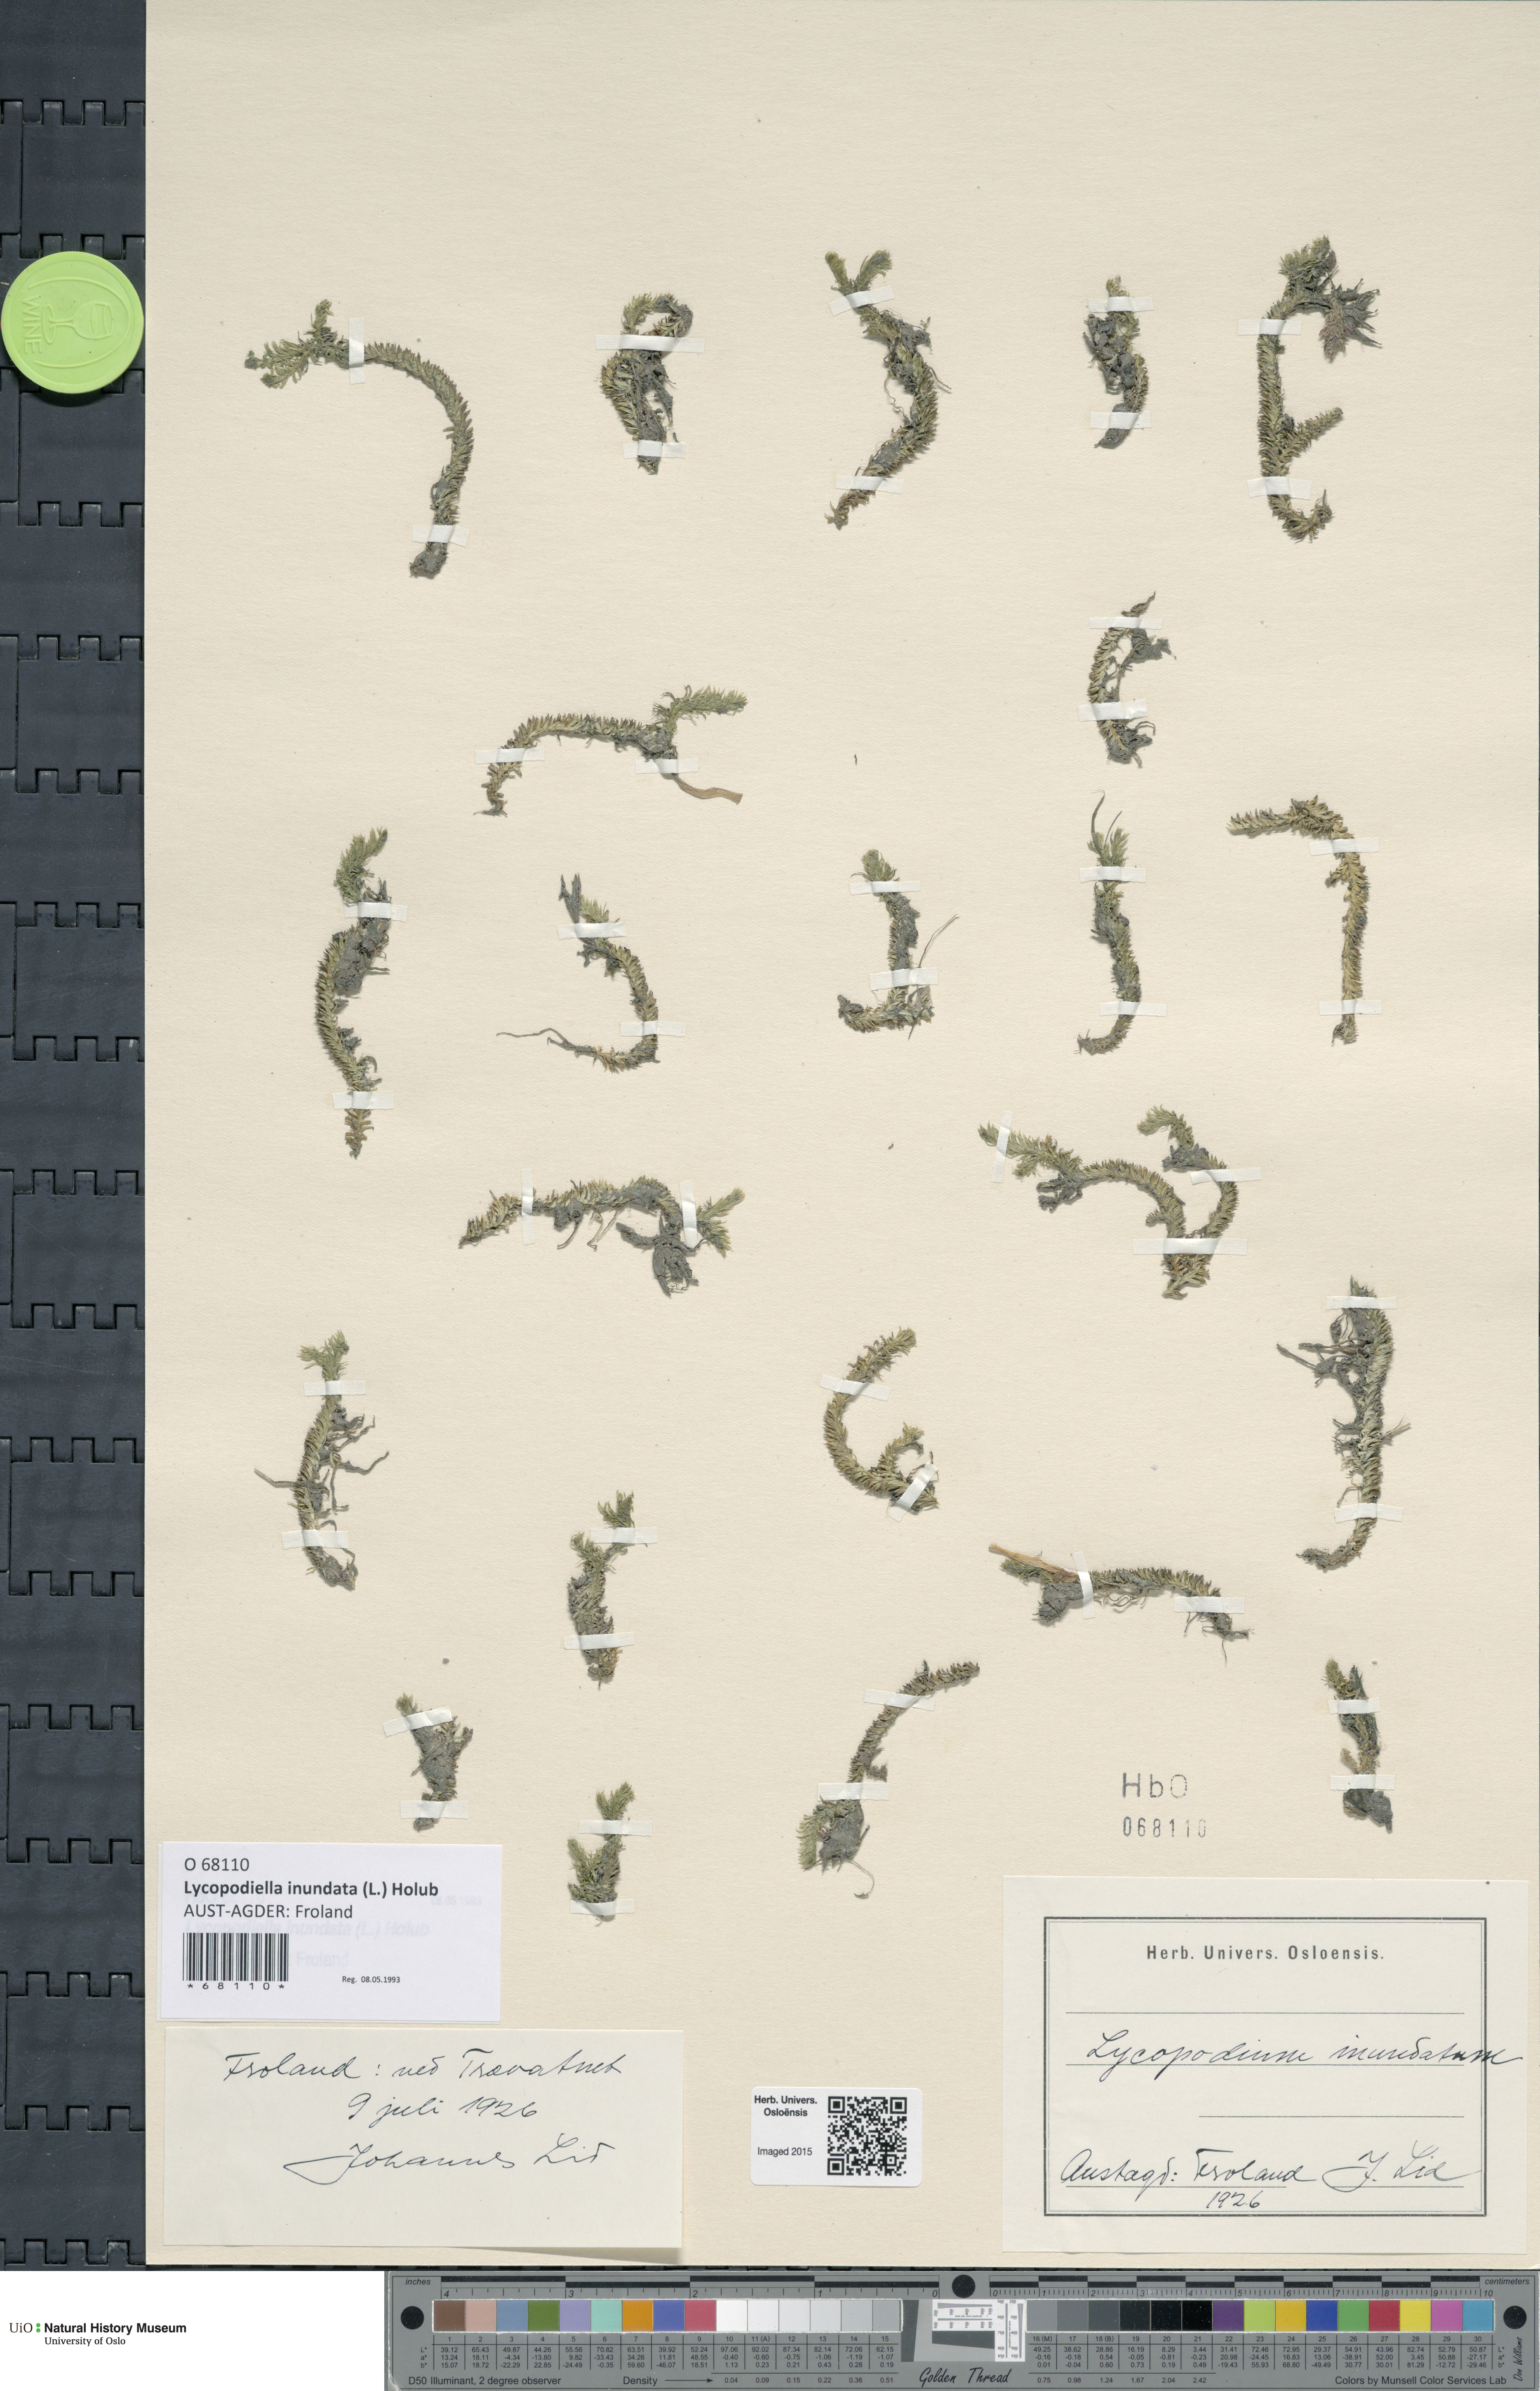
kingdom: Plantae
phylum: Tracheophyta
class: Lycopodiopsida
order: Lycopodiales
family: Lycopodiaceae
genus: Lycopodiella
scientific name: Lycopodiella inundata
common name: Marsh clubmoss
